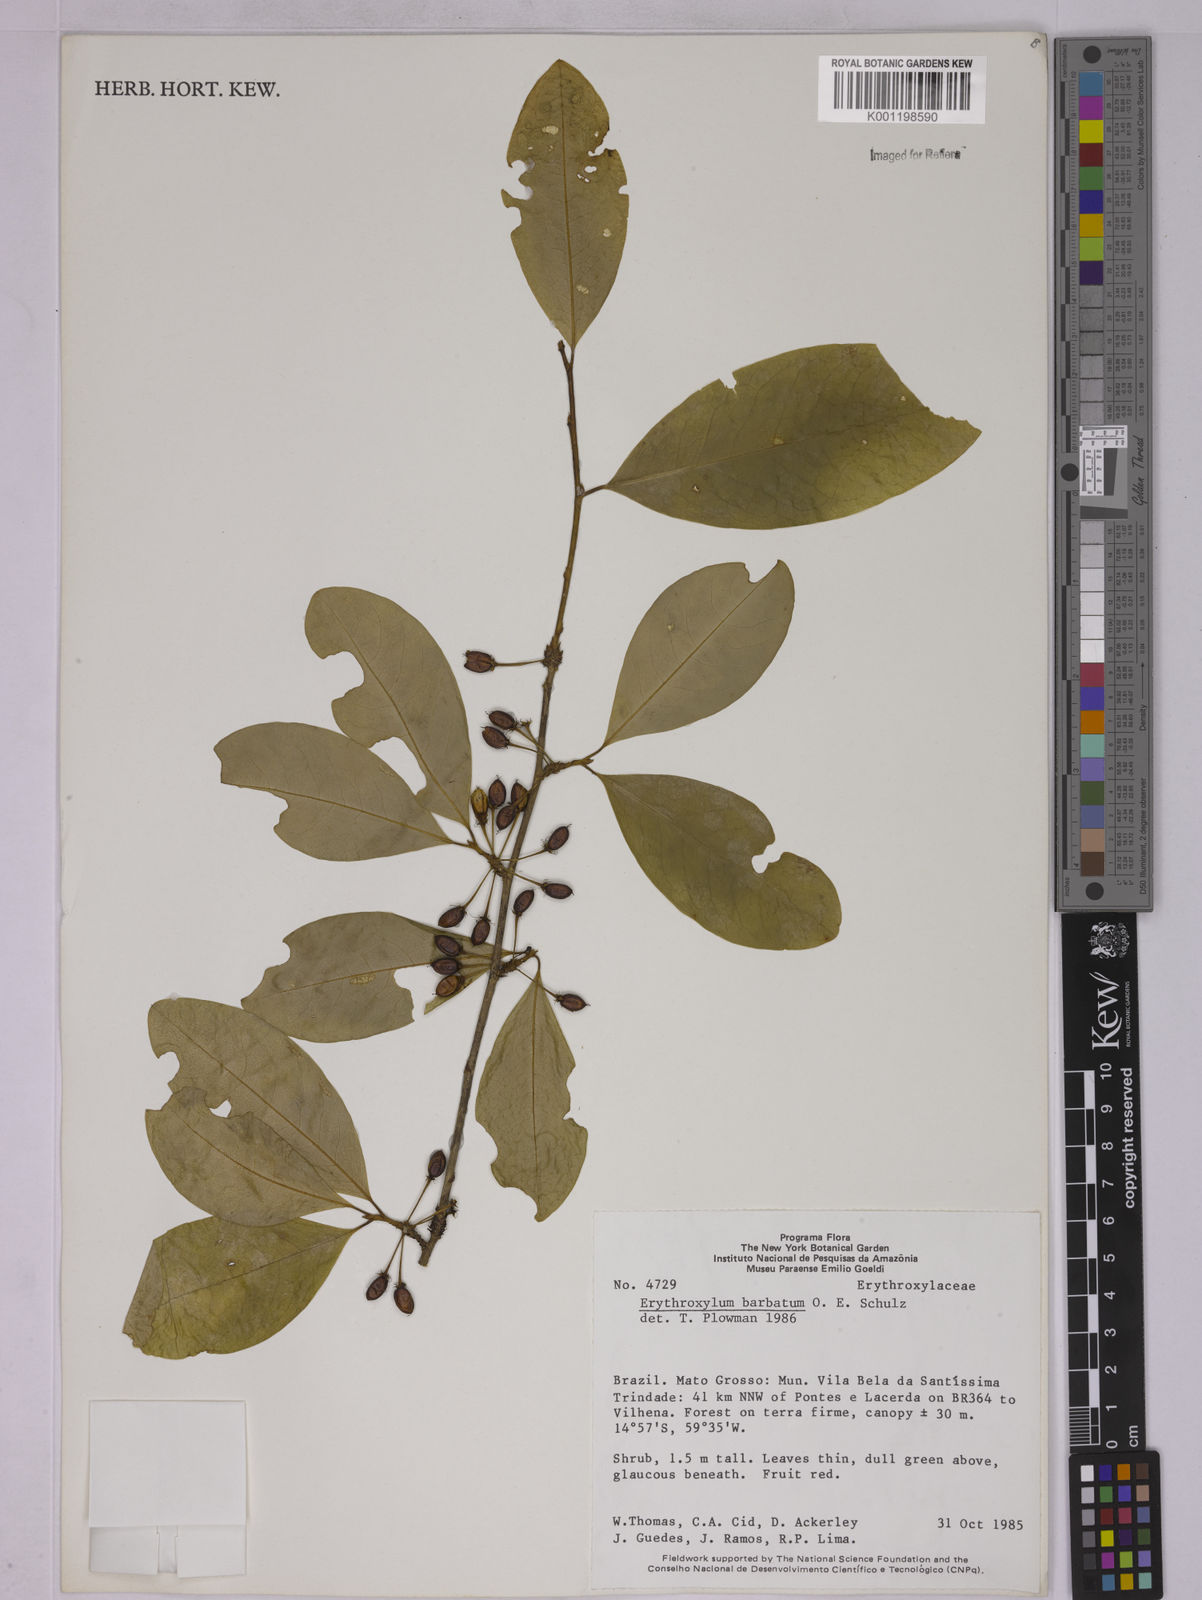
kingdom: Plantae
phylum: Tracheophyta
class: Magnoliopsida
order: Malpighiales
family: Erythroxylaceae
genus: Erythroxylum
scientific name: Erythroxylum barbatum
